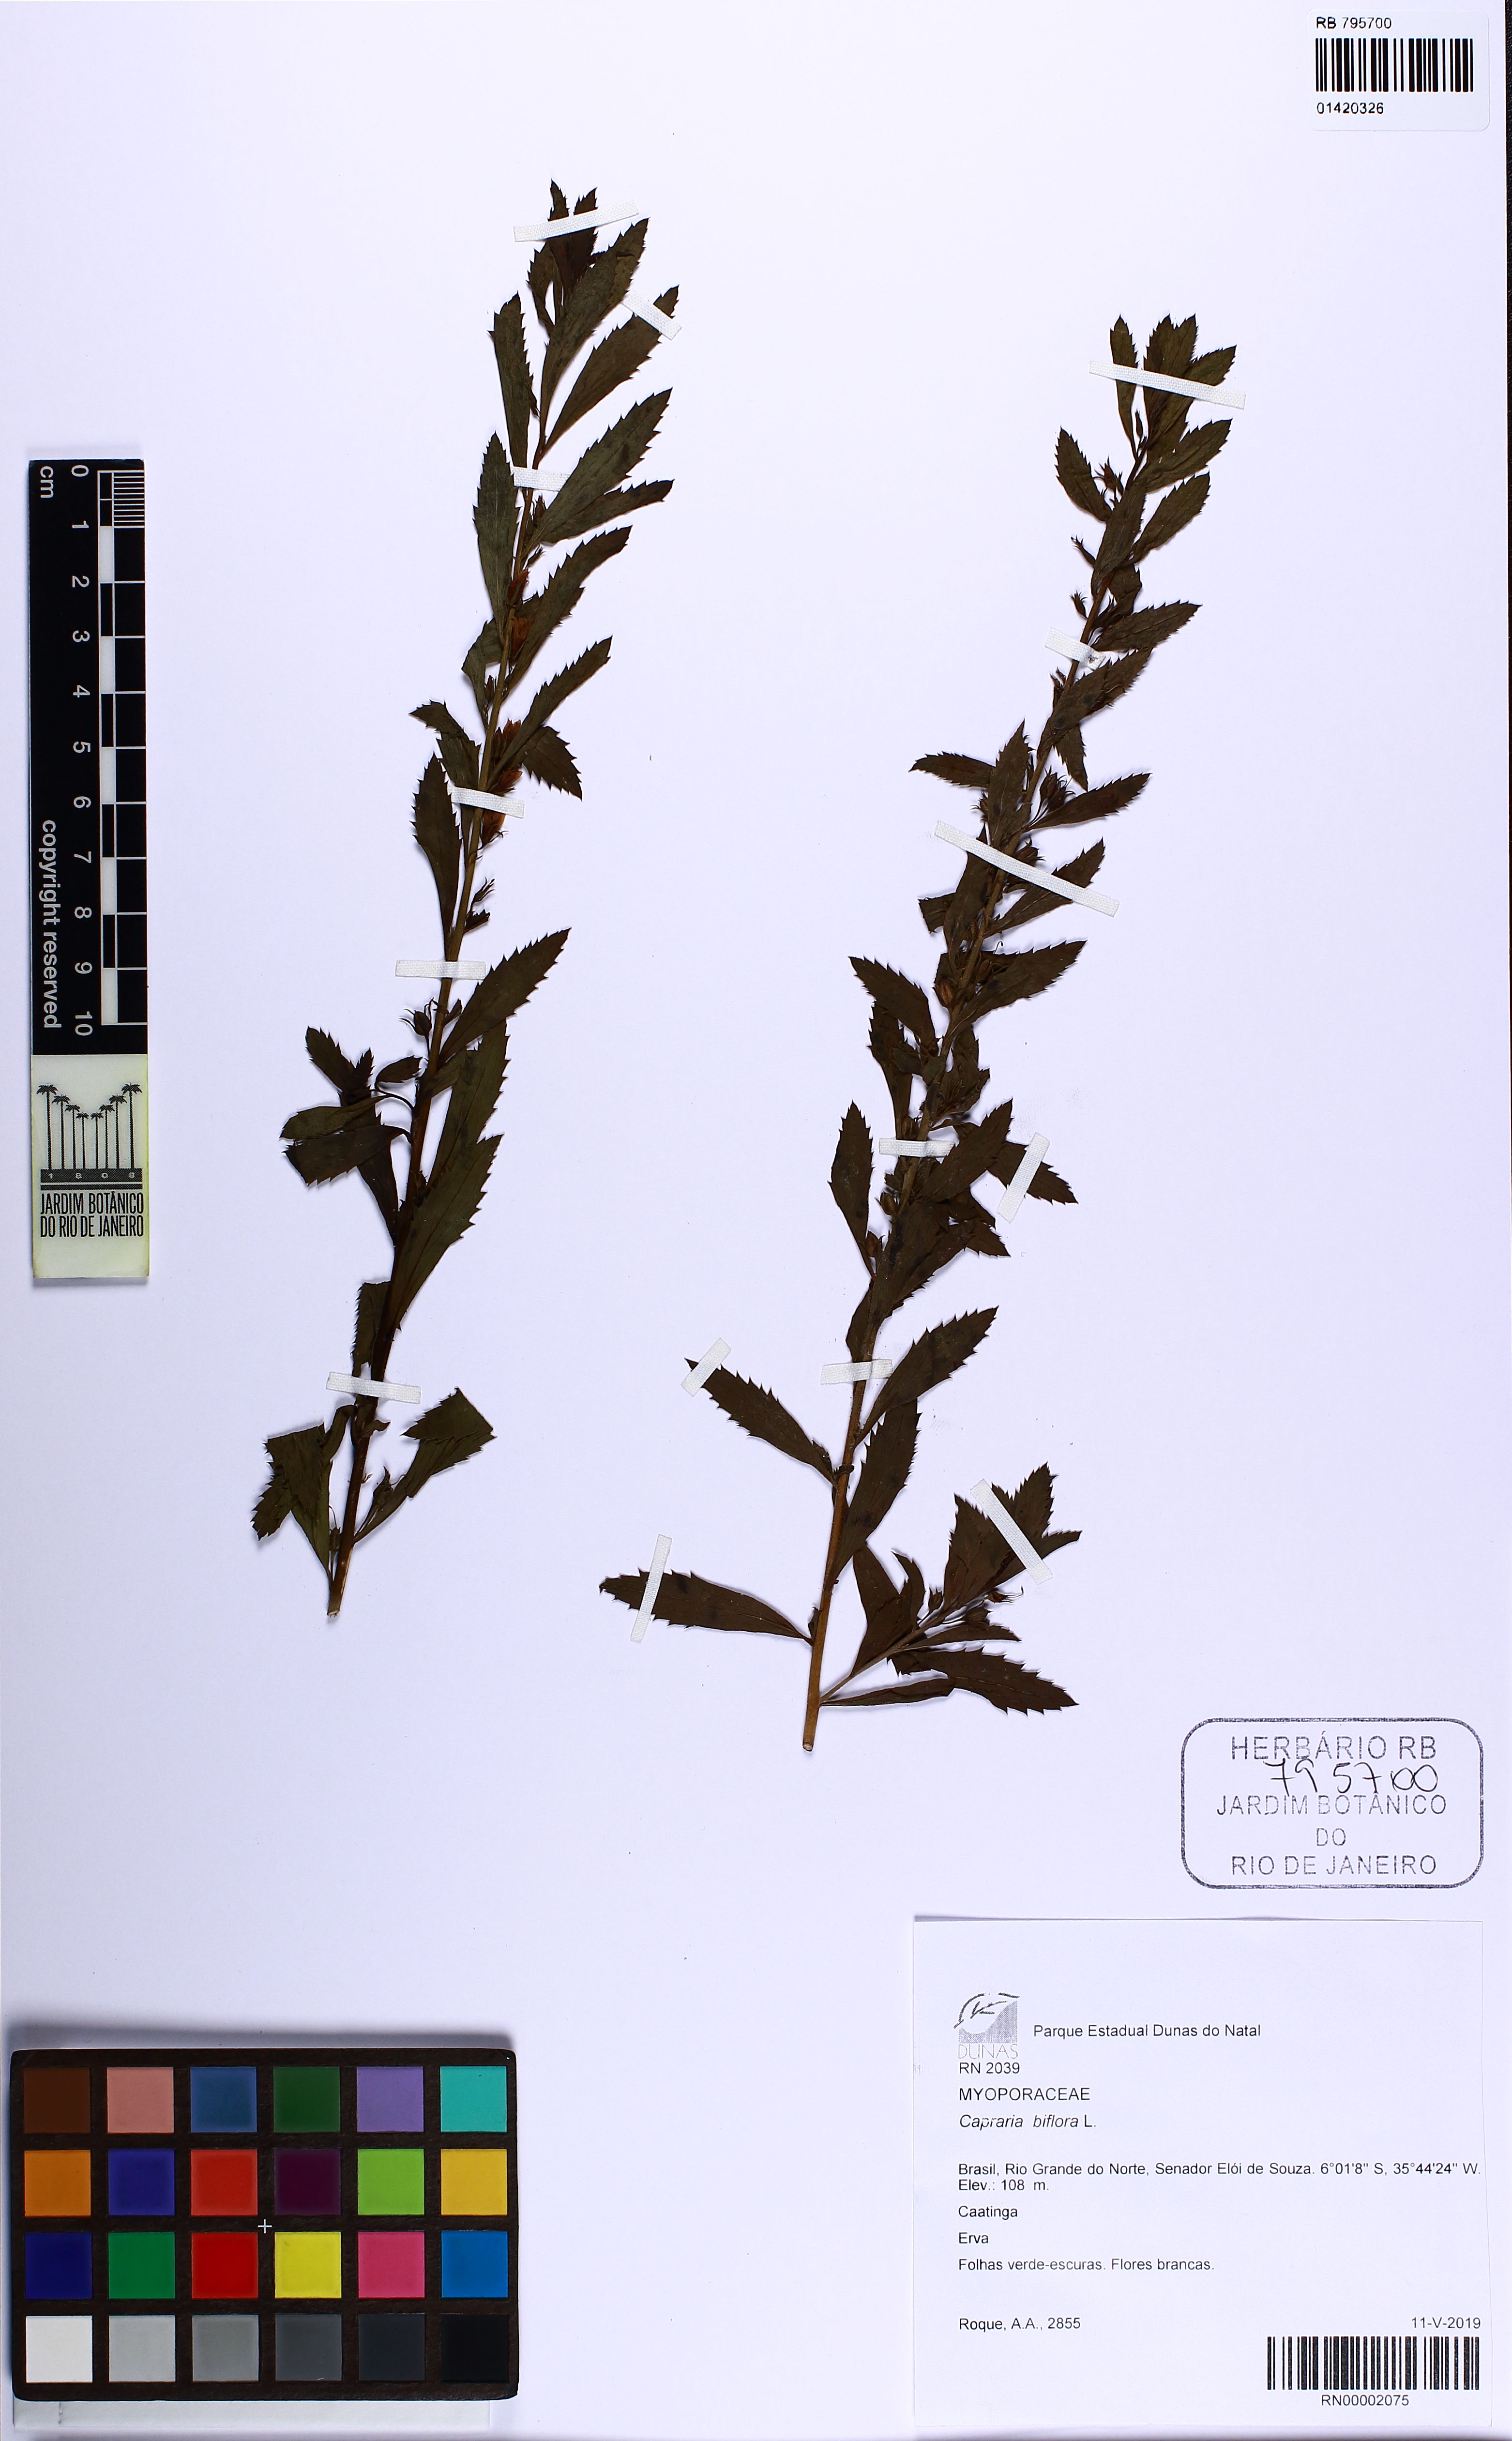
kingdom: Plantae
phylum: Tracheophyta
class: Magnoliopsida
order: Lamiales
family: Scrophulariaceae
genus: Capraria
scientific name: Capraria biflora
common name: Goatweed
